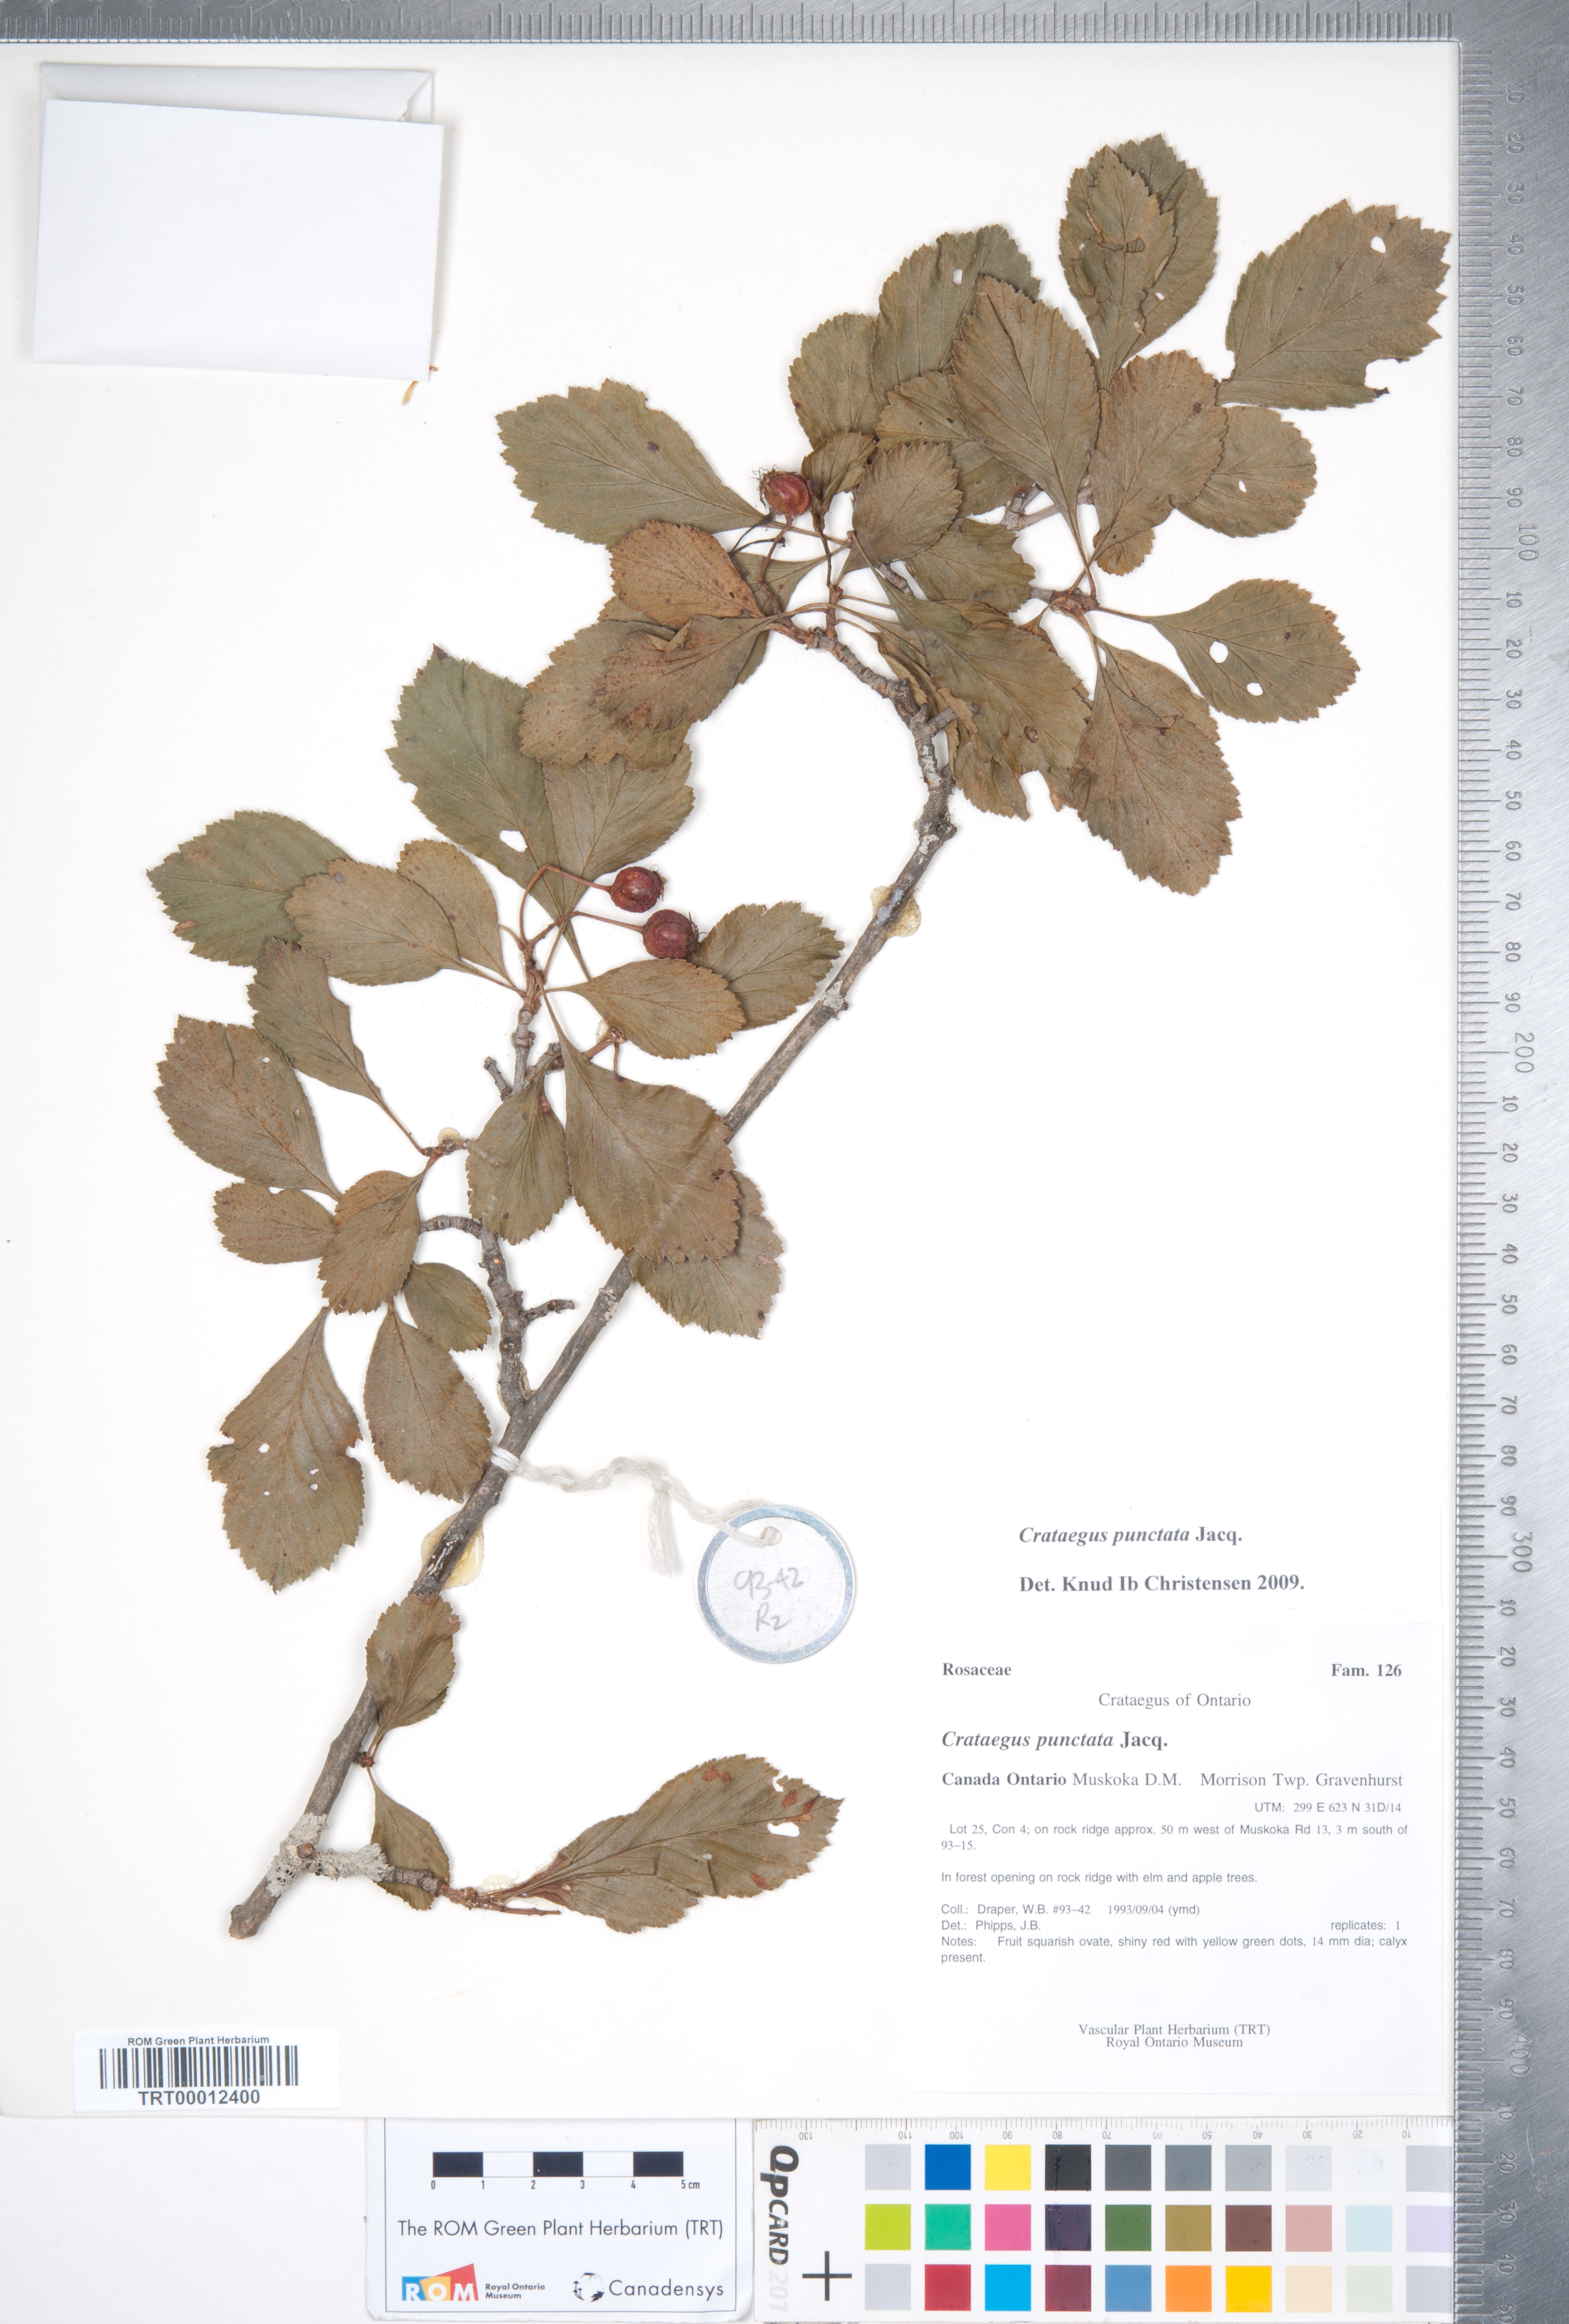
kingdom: Plantae
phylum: Tracheophyta
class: Magnoliopsida
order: Rosales
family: Rosaceae
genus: Crataegus
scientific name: Crataegus punctata
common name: Dotted hawthorn
